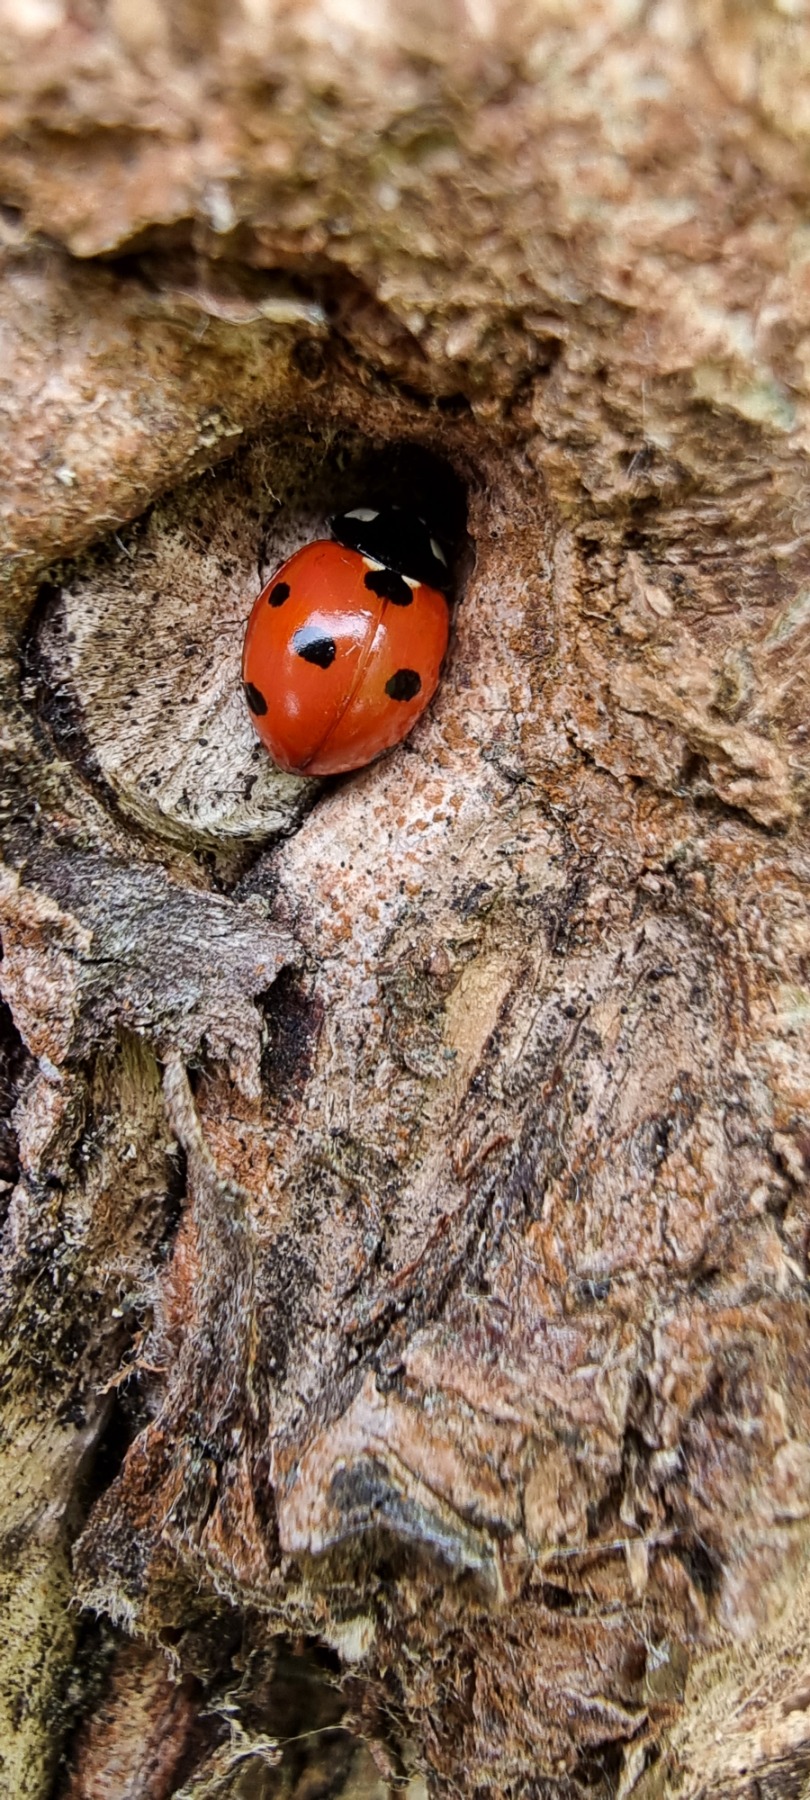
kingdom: Animalia
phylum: Arthropoda
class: Insecta
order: Coleoptera
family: Coccinellidae
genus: Coccinella
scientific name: Coccinella septempunctata
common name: Syvplettet mariehøne
